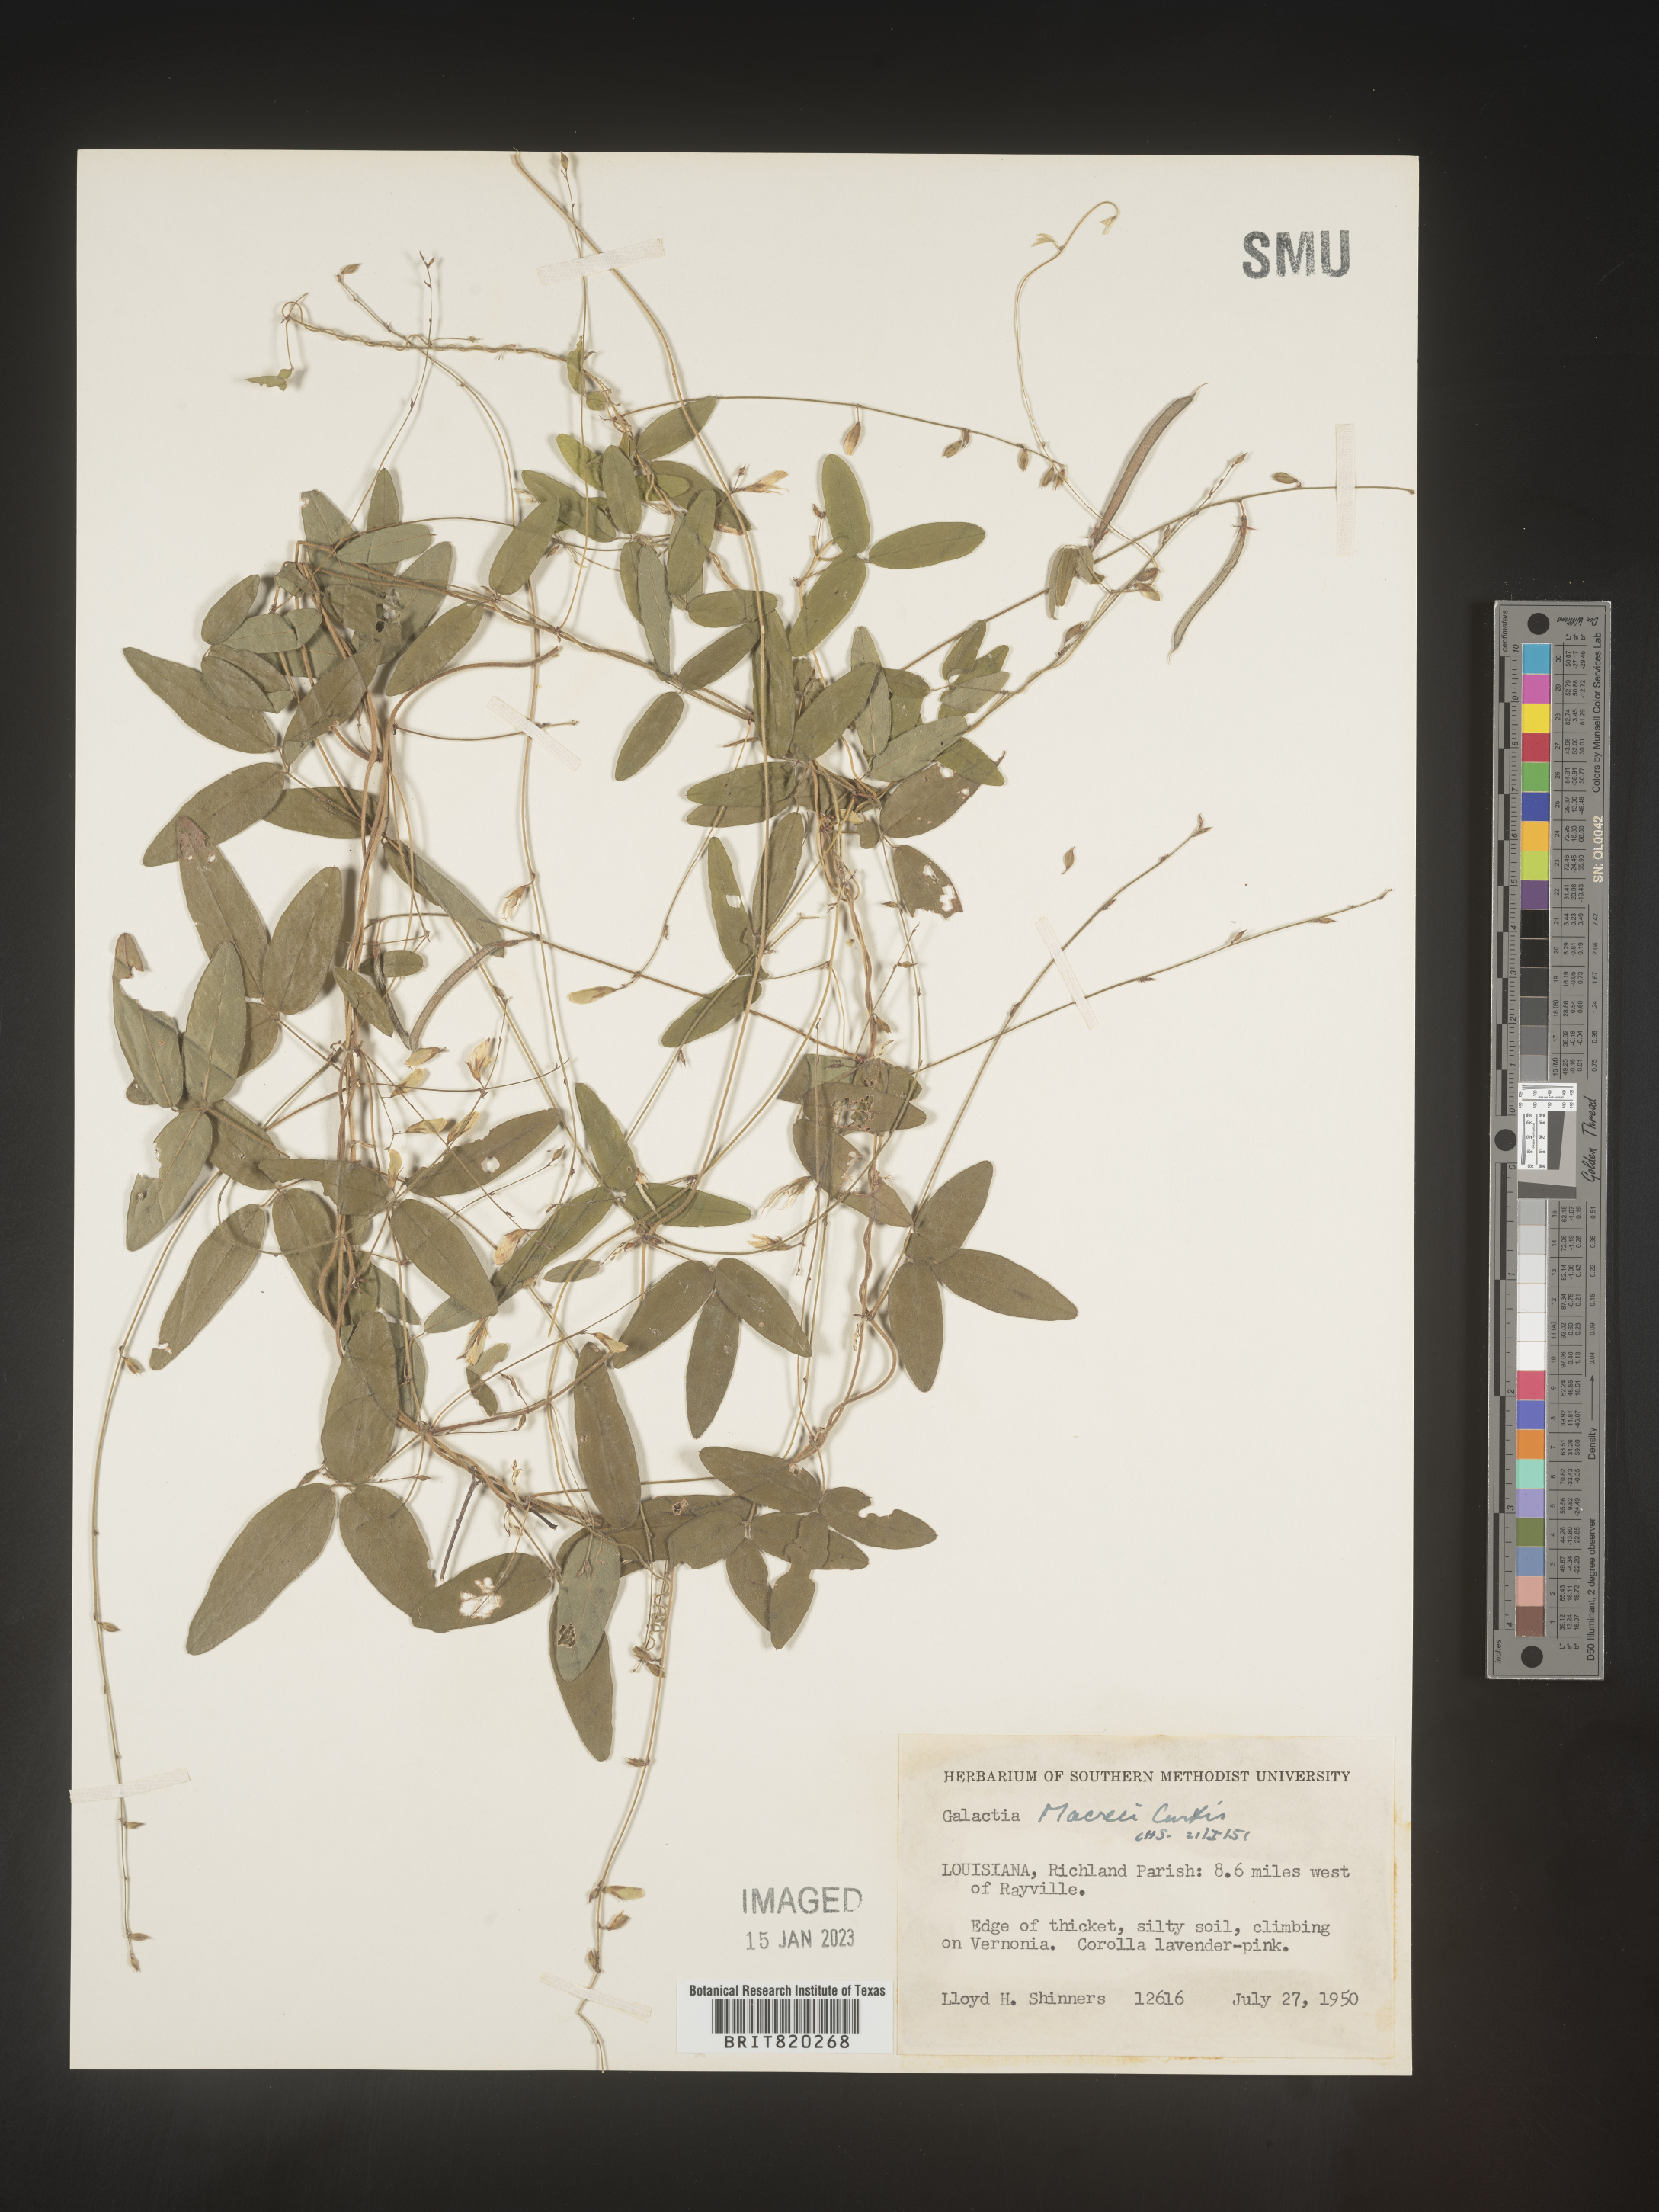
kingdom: Plantae
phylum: Tracheophyta
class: Magnoliopsida
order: Fabales
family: Fabaceae
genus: Galactia
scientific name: Galactia volubilis
